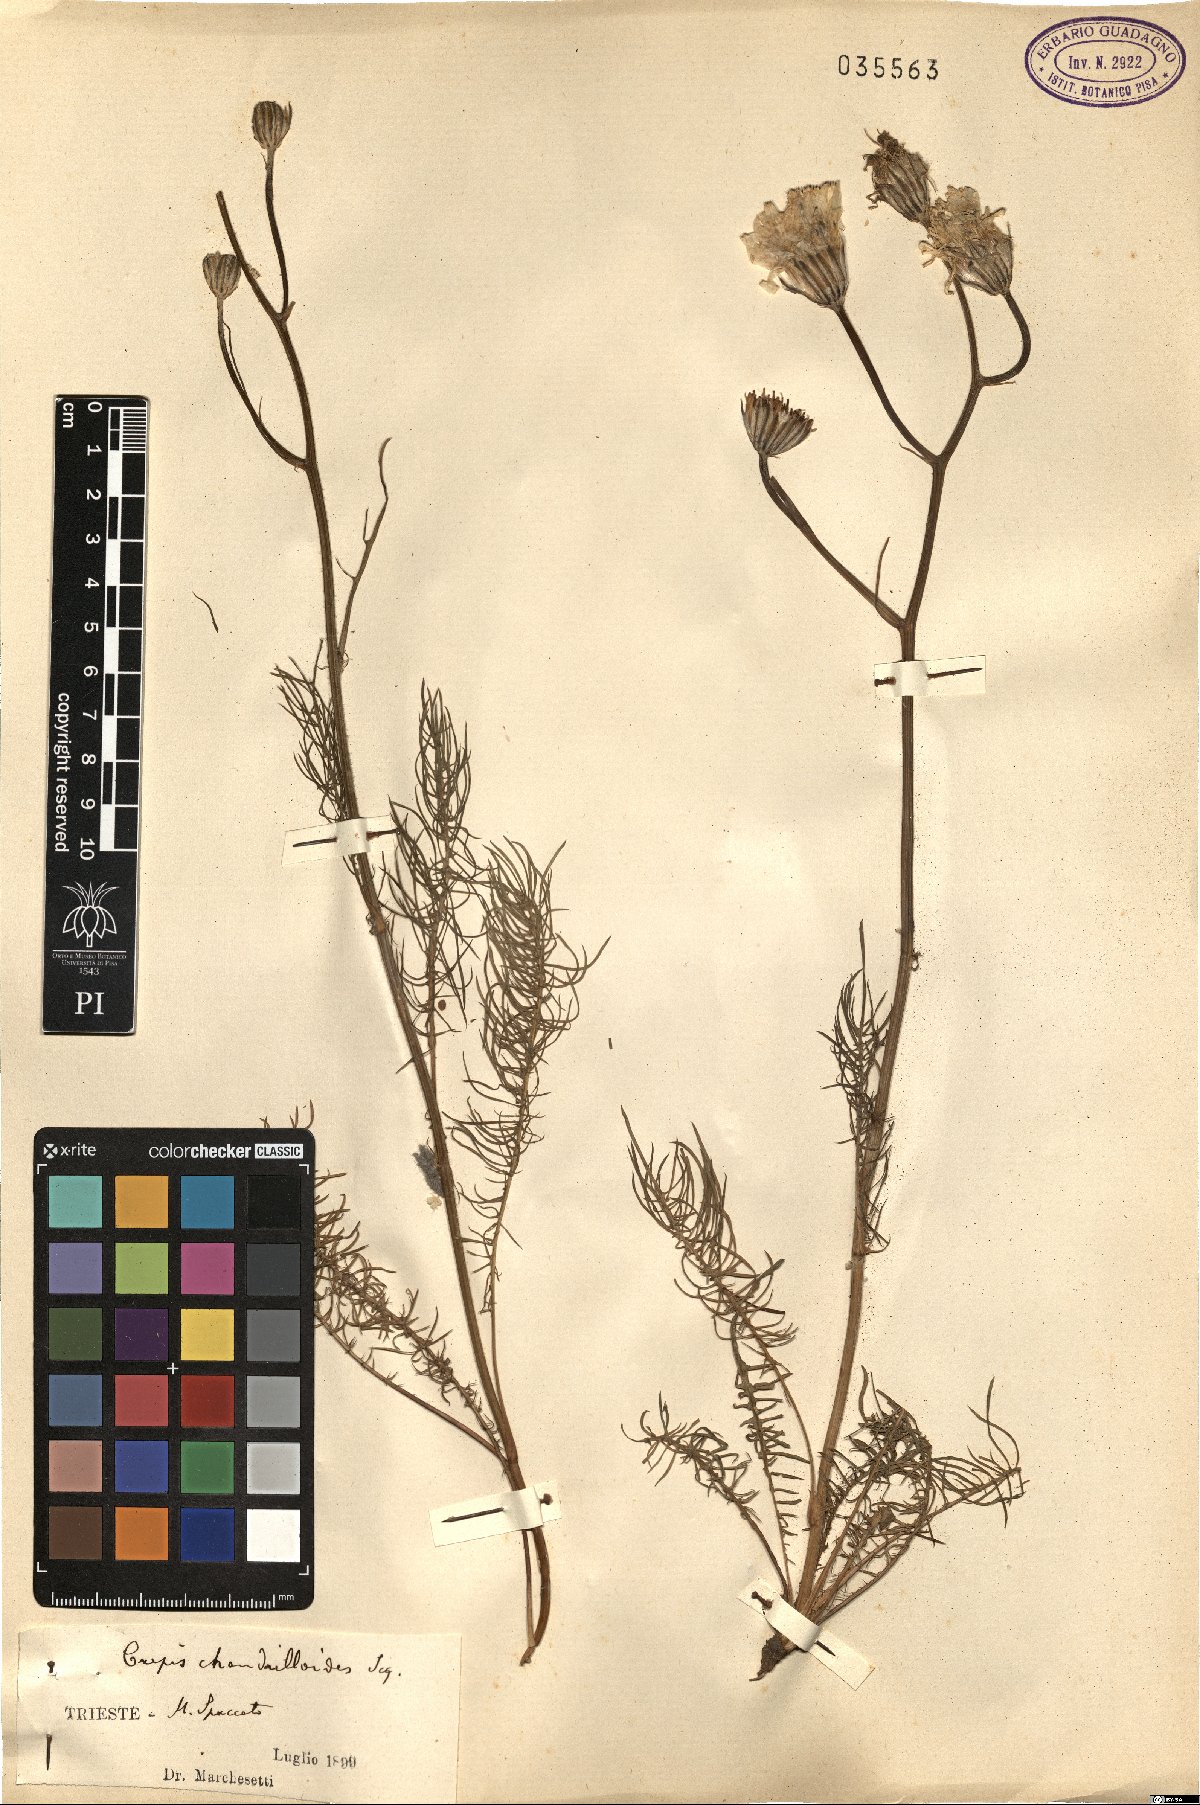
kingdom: Plantae
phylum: Tracheophyta
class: Magnoliopsida
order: Asterales
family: Asteraceae
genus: Crepis
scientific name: Crepis chondrilloides
